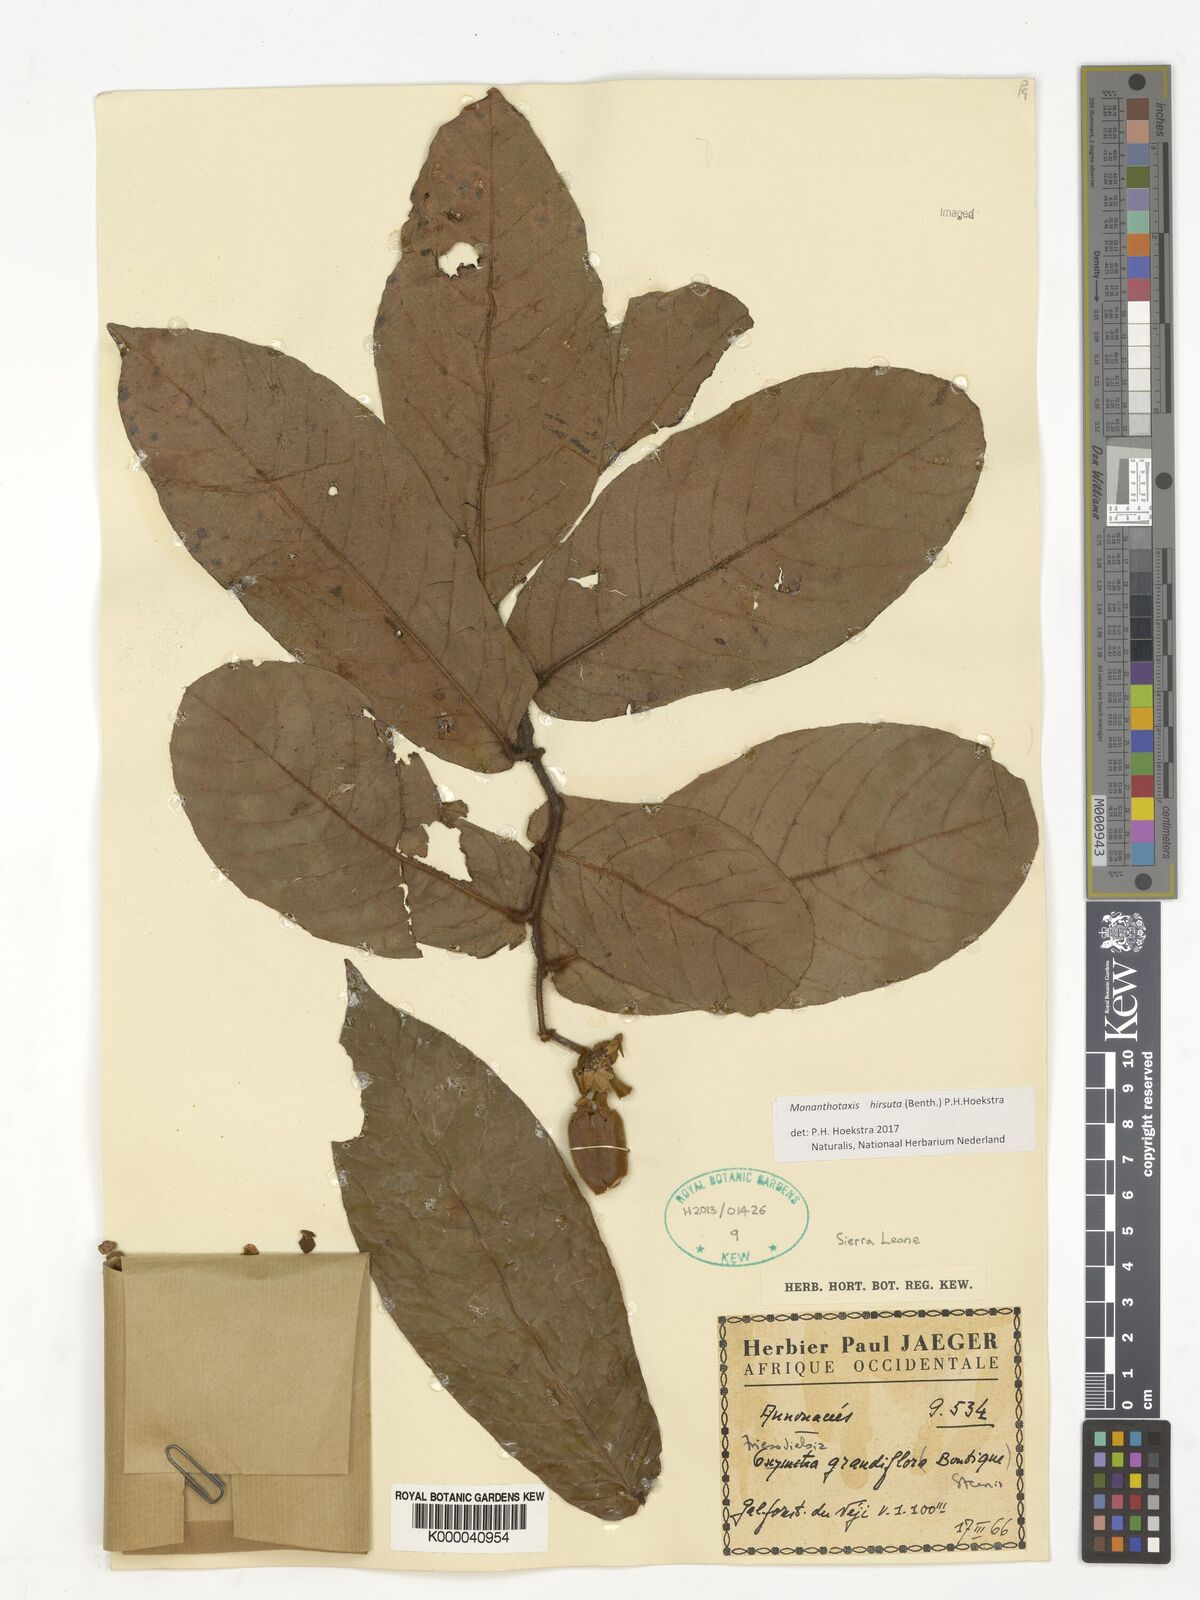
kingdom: Plantae
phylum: Tracheophyta
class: Magnoliopsida
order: Magnoliales
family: Annonaceae
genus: Friesodielsia
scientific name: Friesodielsia hirsuta
